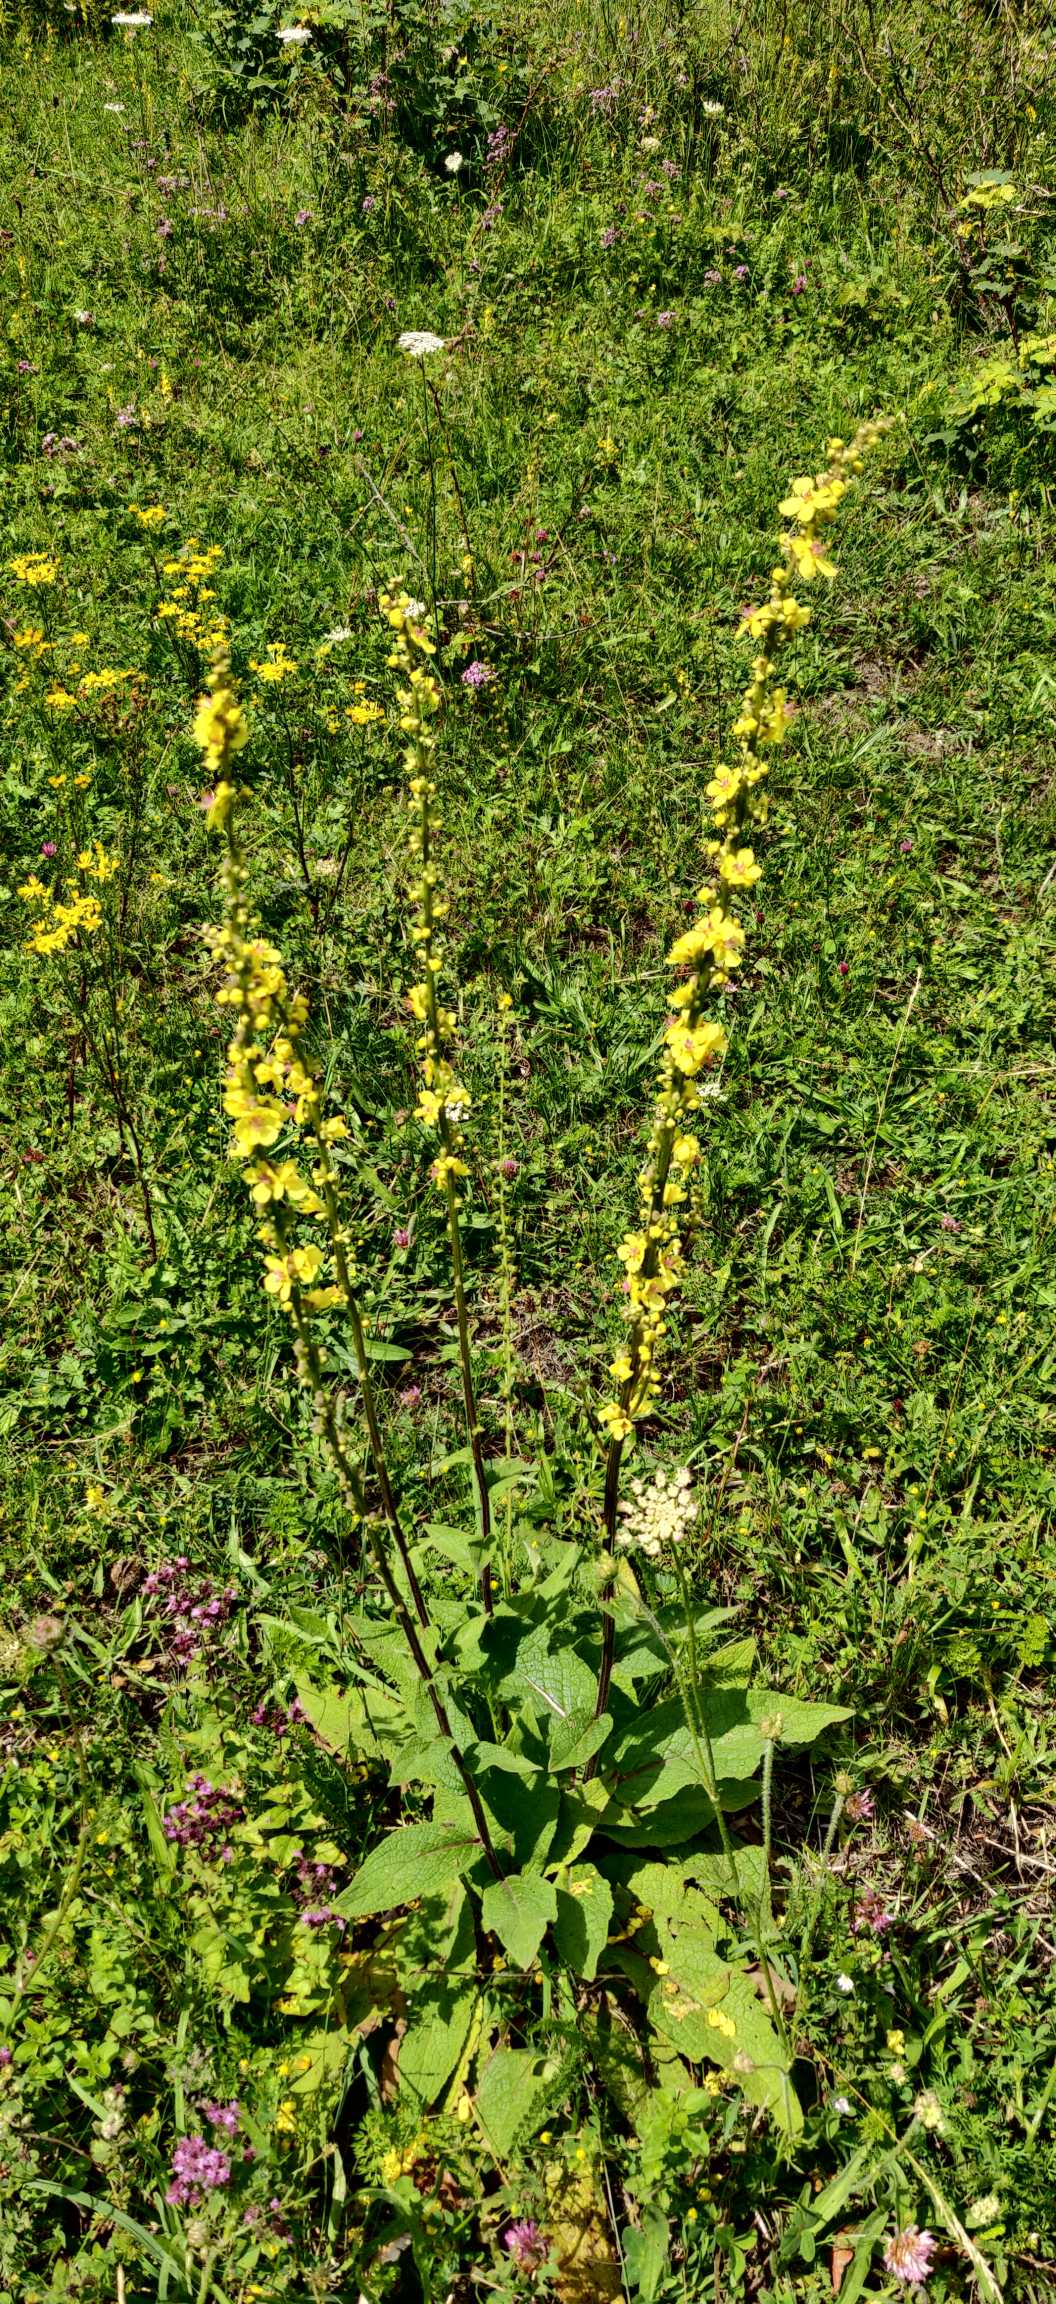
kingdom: Plantae
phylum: Tracheophyta
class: Magnoliopsida
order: Lamiales
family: Scrophulariaceae
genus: Verbascum
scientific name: Verbascum nigrum
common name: Mørk kongelys
